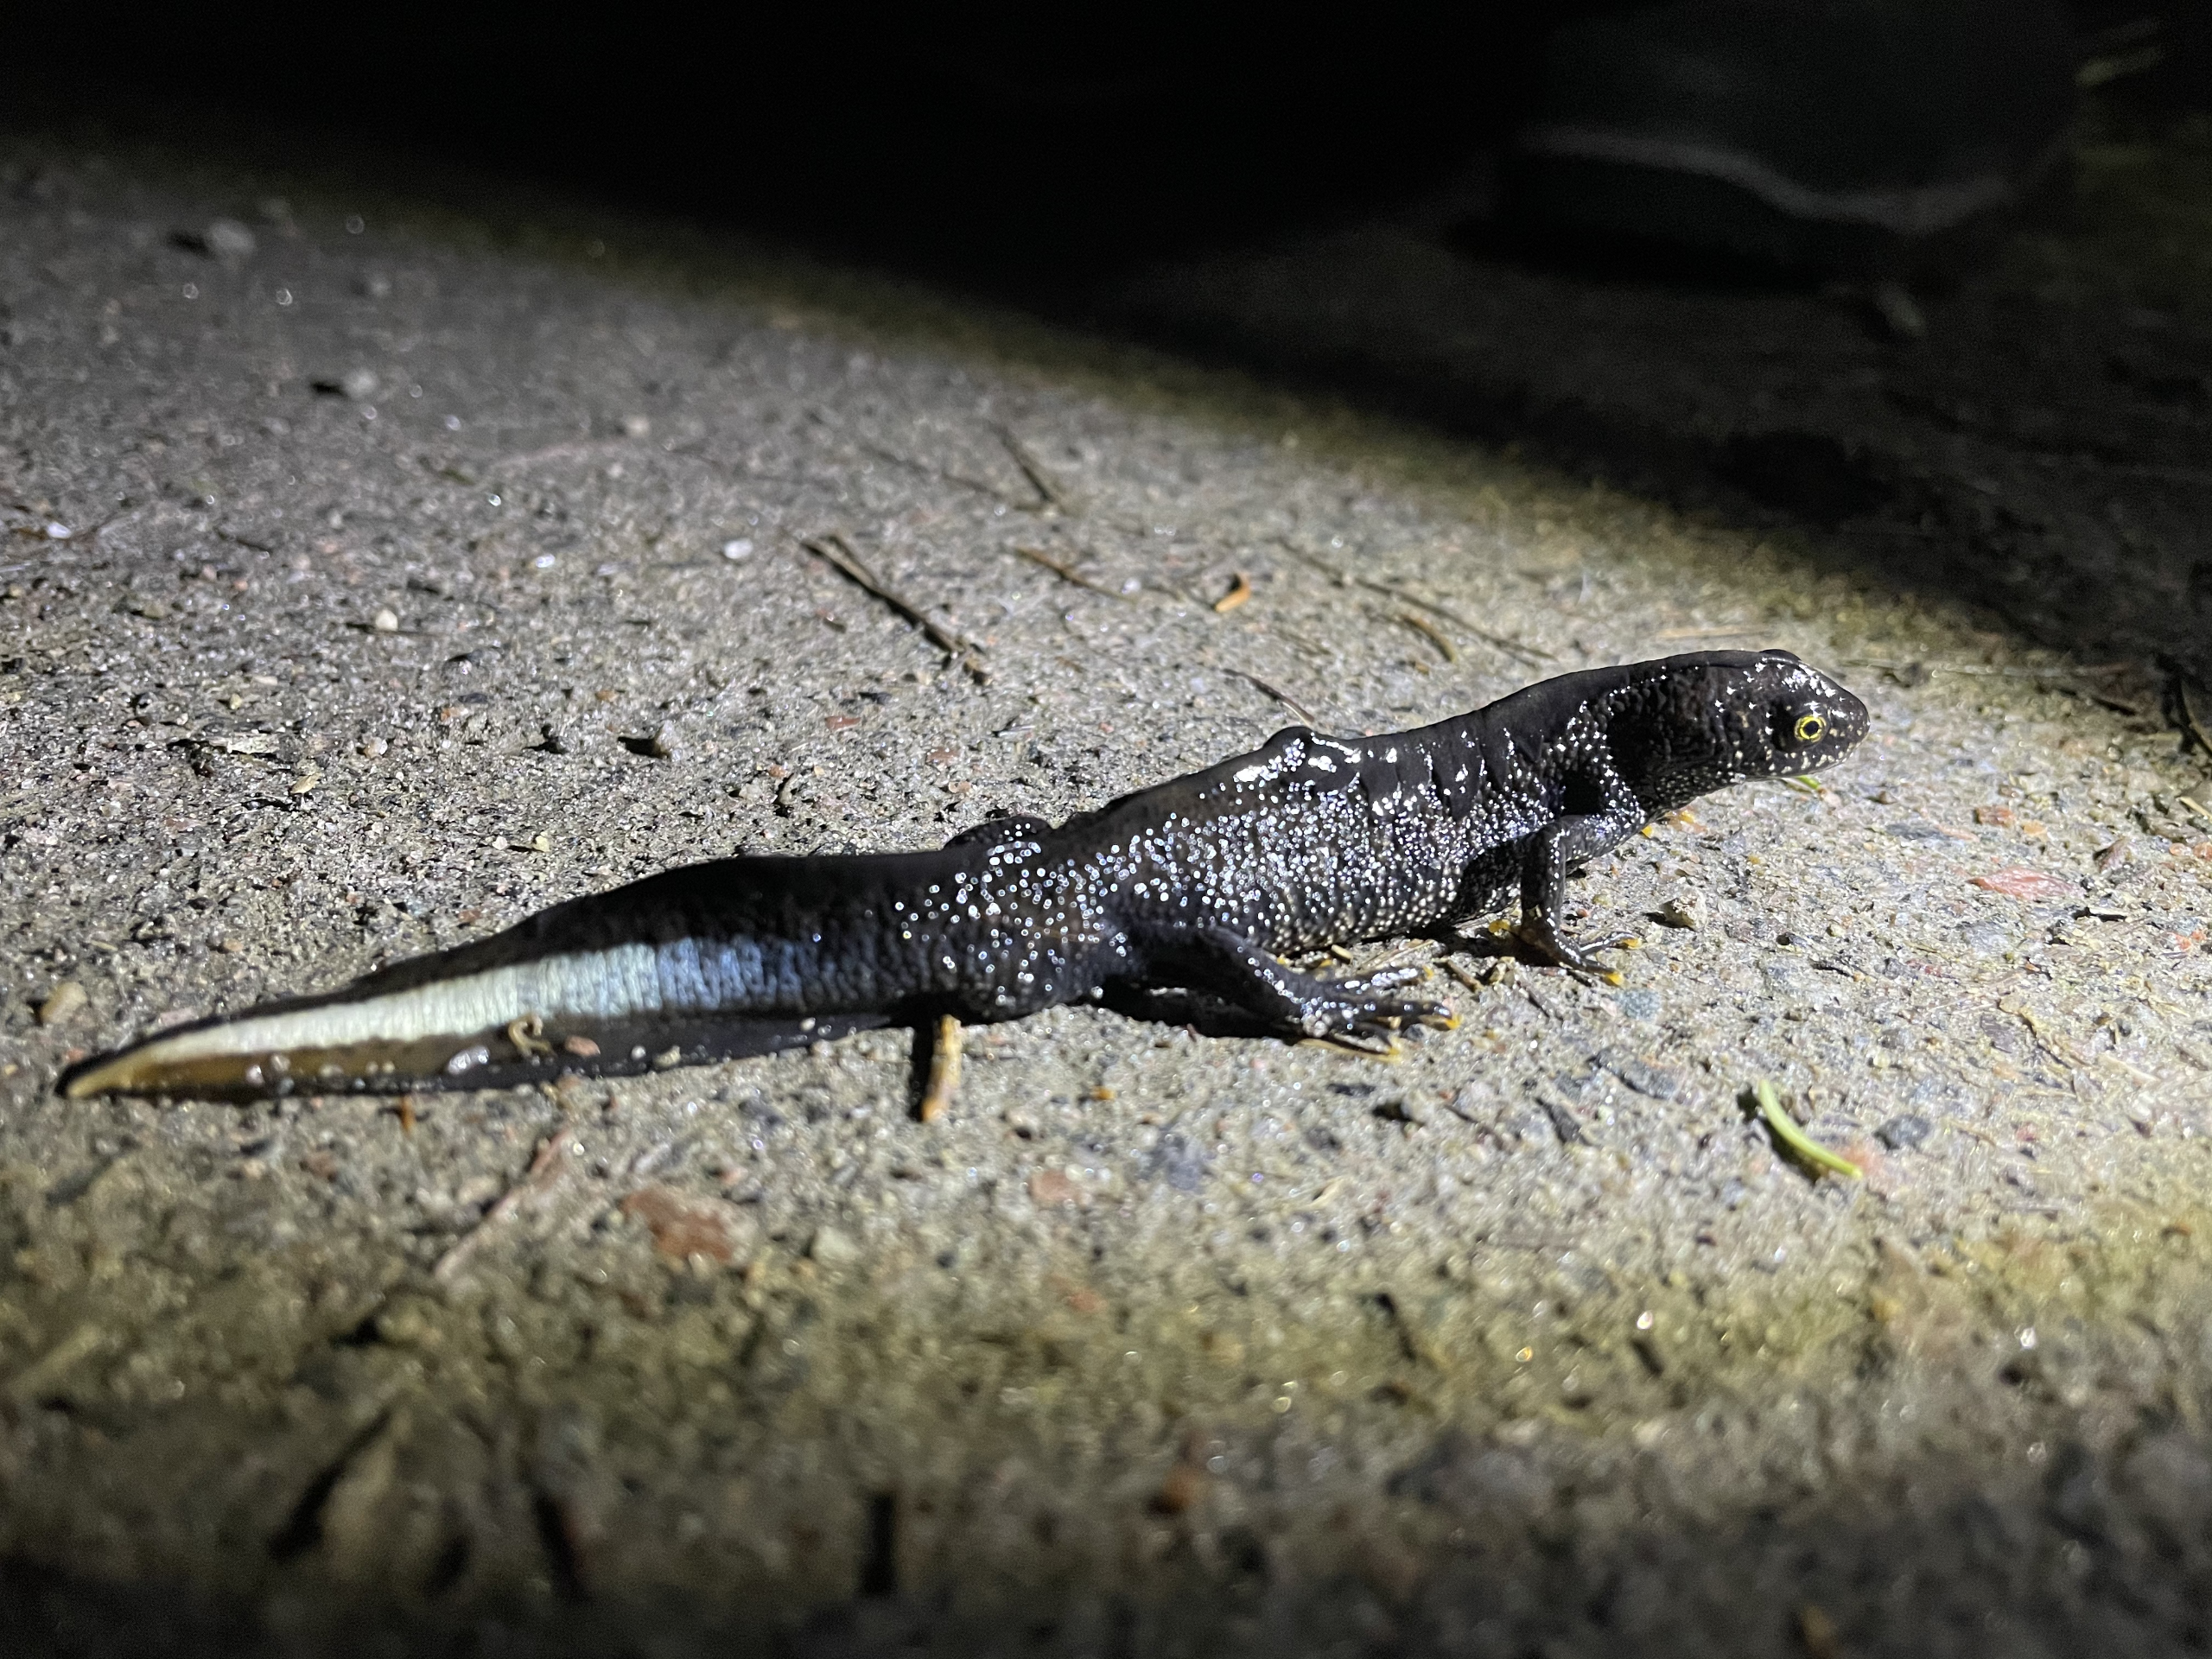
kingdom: Animalia
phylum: Chordata
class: Amphibia
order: Caudata
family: Salamandridae
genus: Triturus
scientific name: Triturus cristatus
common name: Stor vandsalamander
